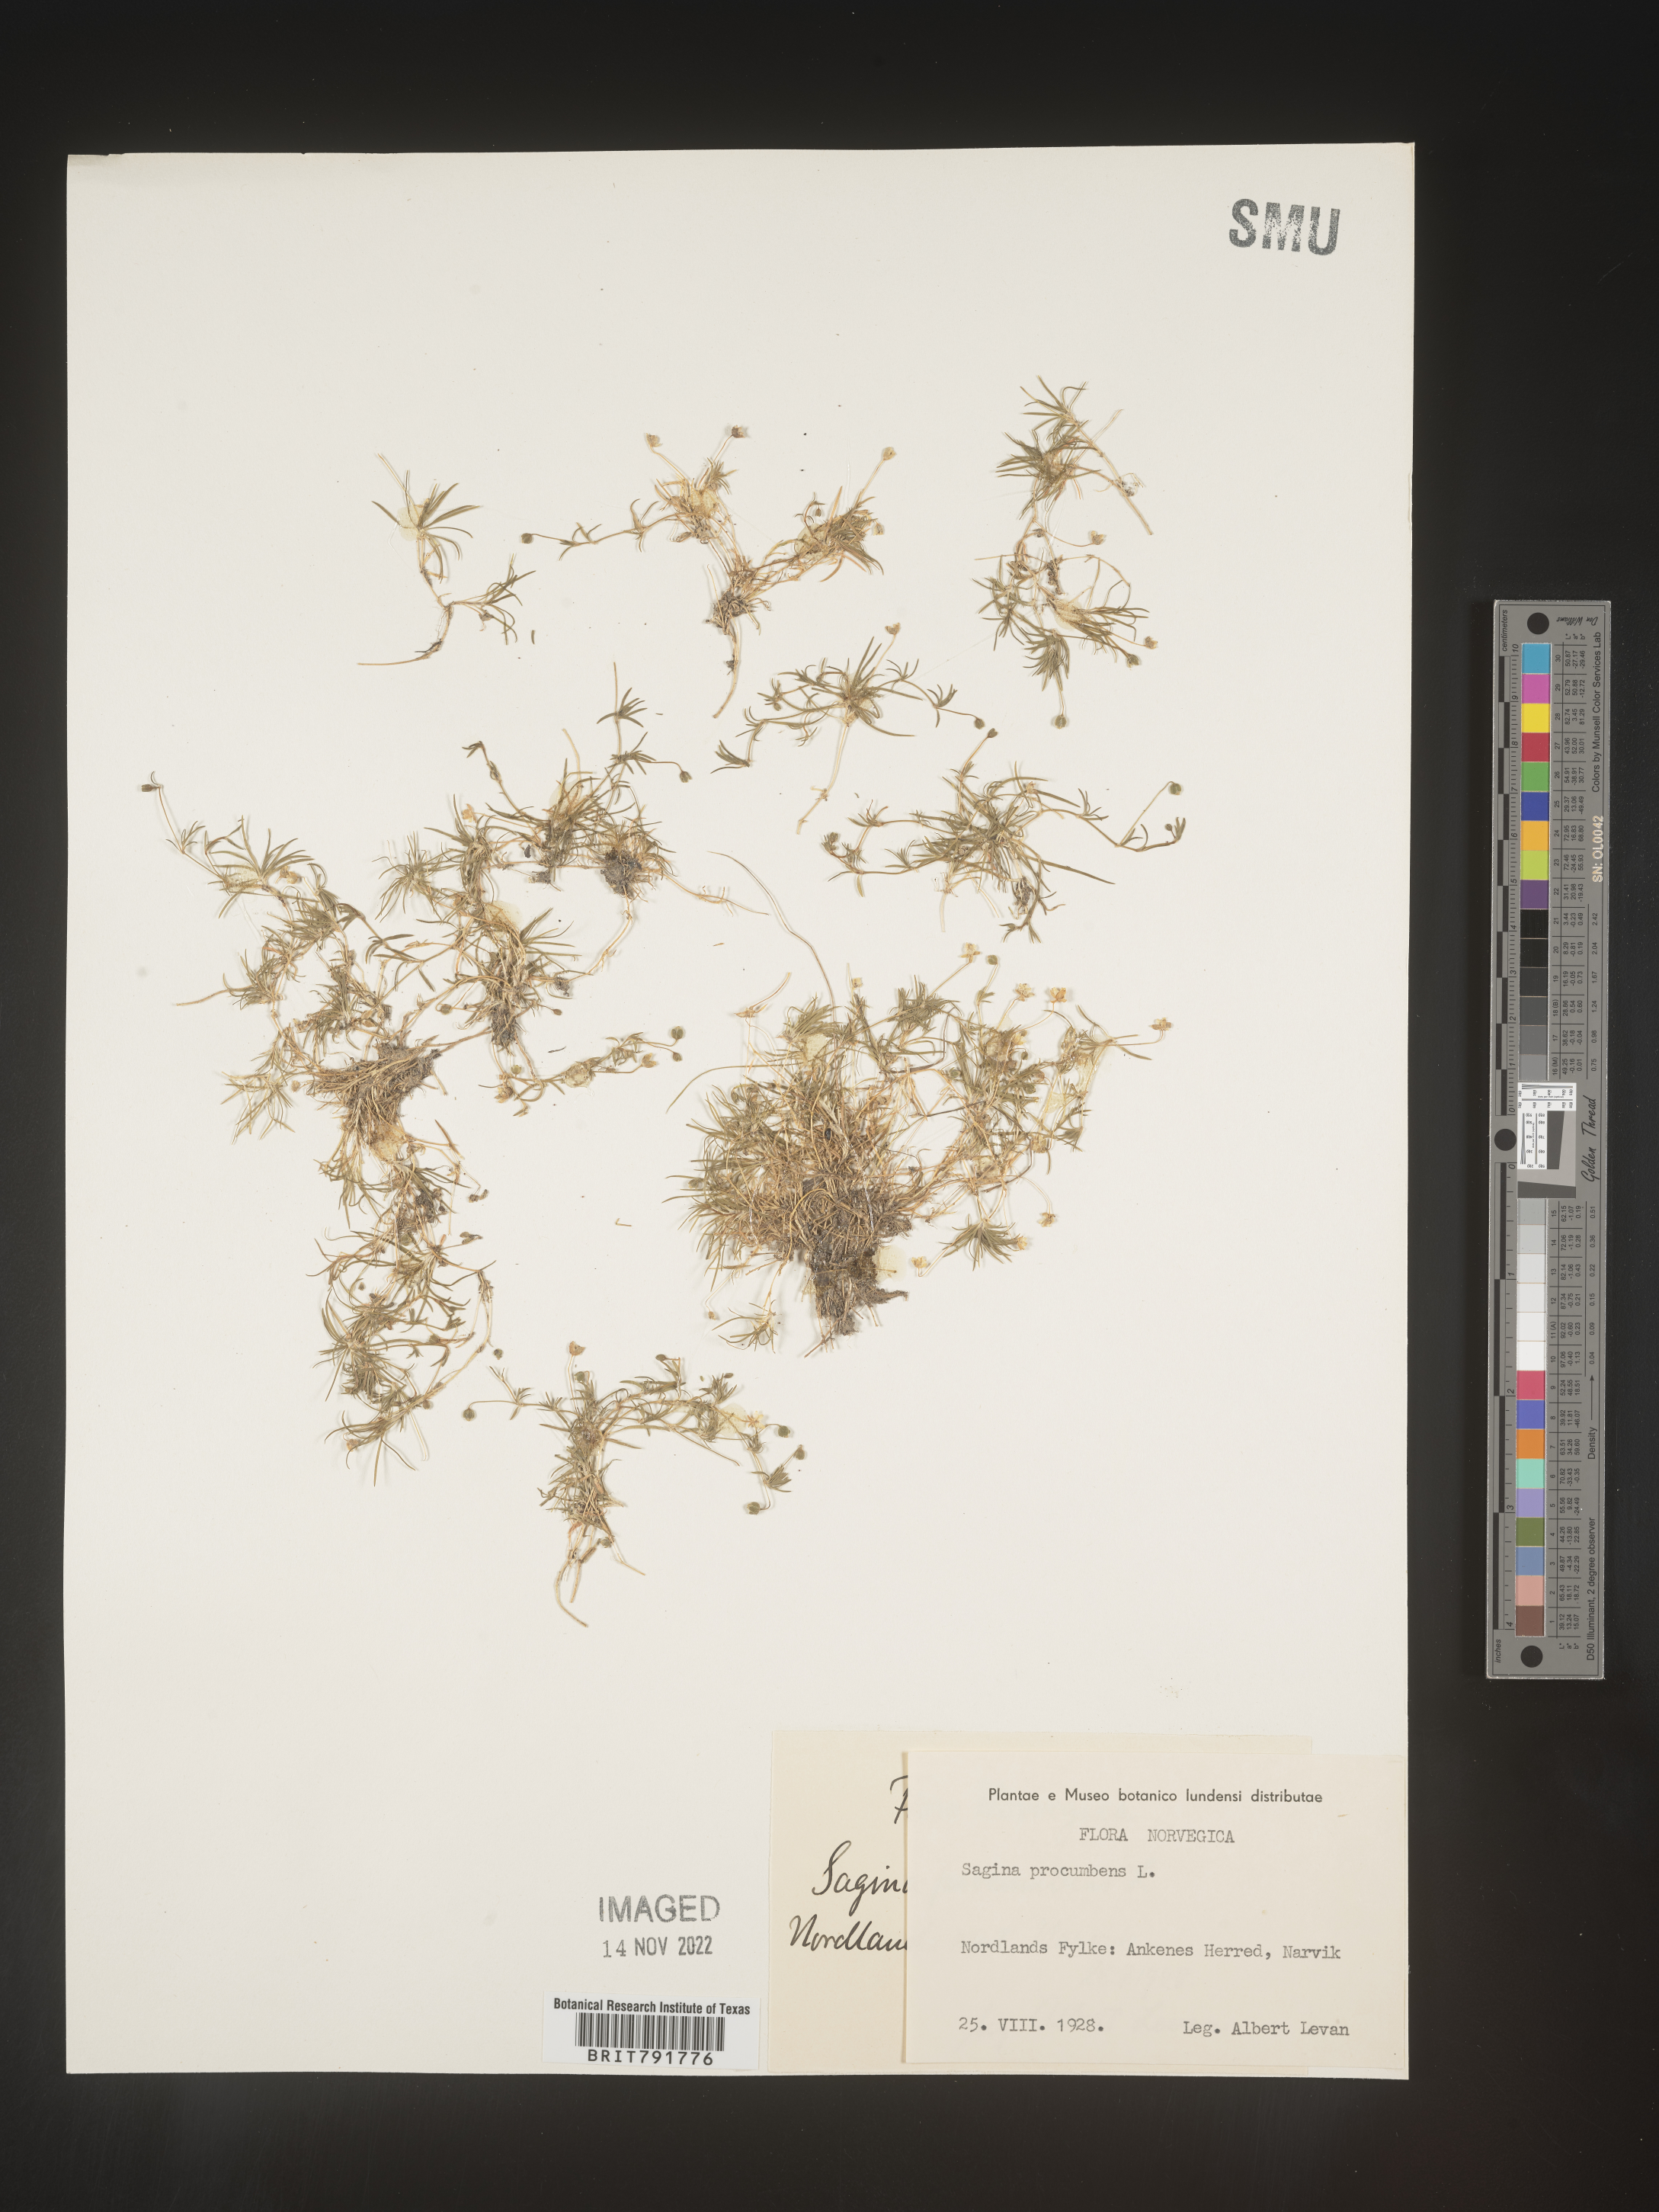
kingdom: Plantae
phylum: Tracheophyta
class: Magnoliopsida
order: Caryophyllales
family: Caryophyllaceae
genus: Sagina
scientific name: Sagina
